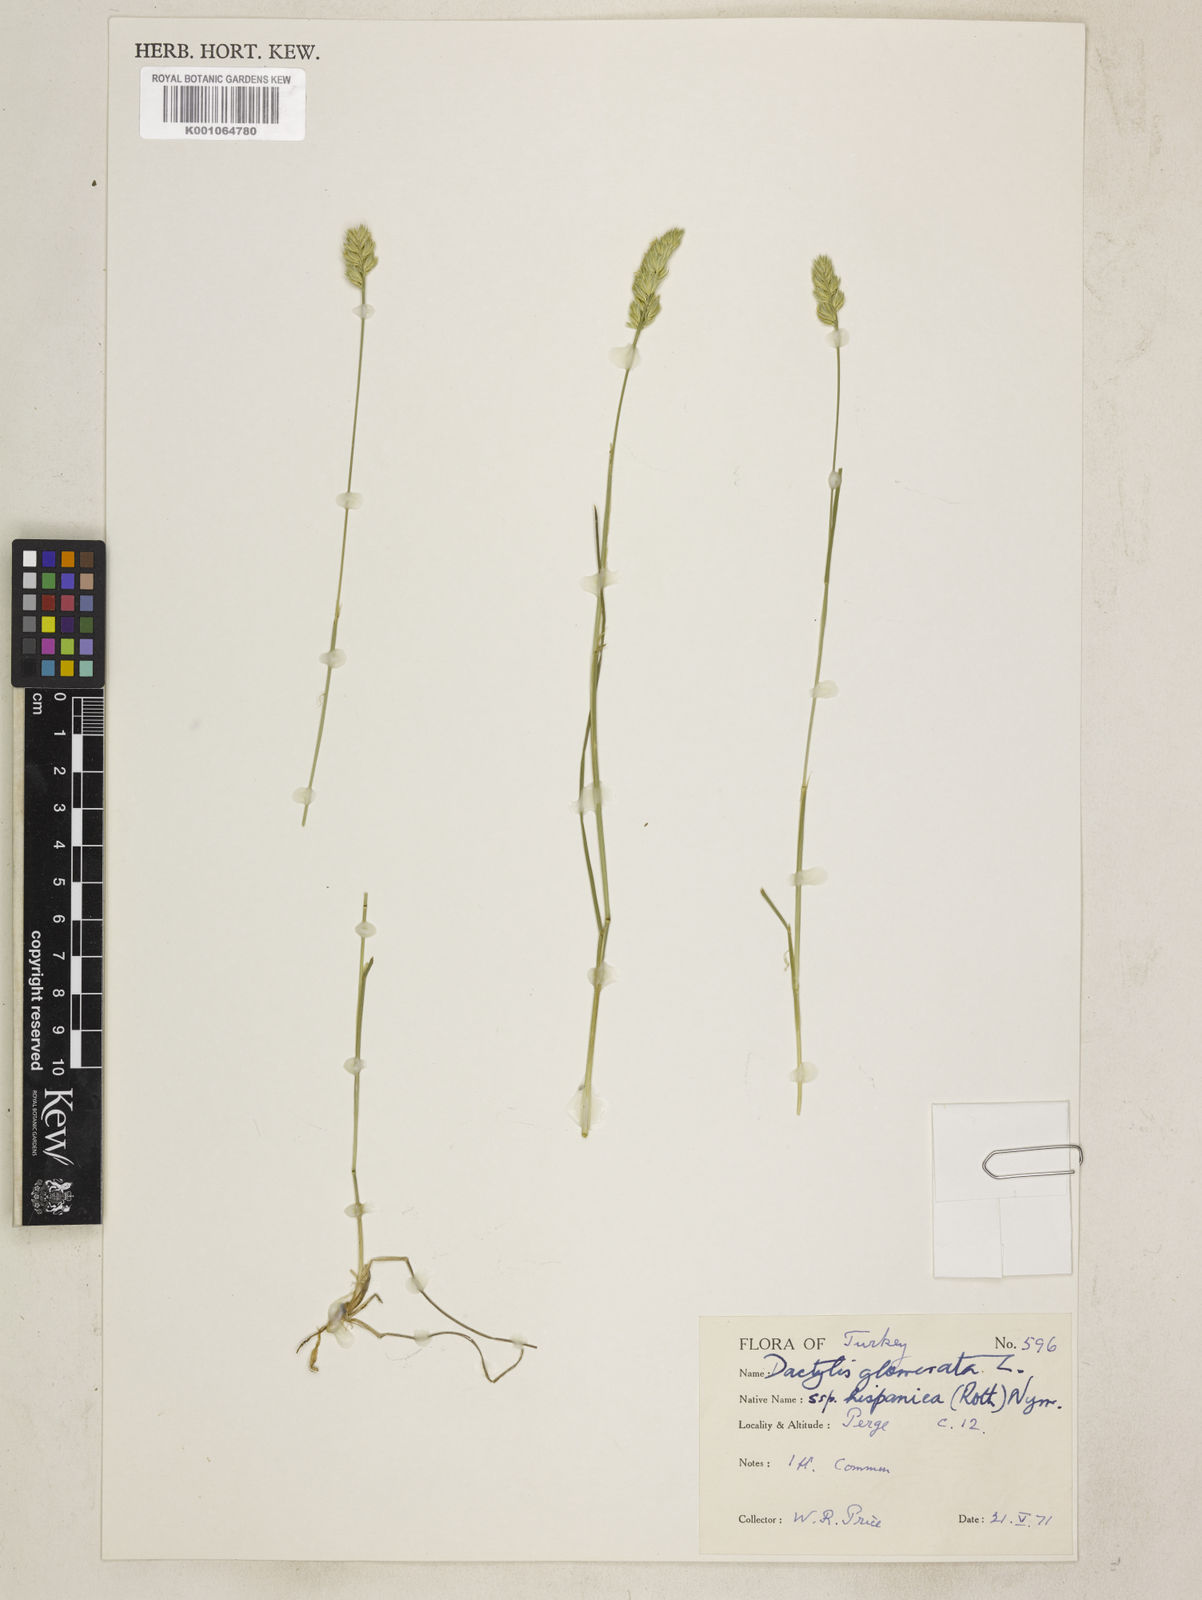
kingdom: Plantae
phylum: Tracheophyta
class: Liliopsida
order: Poales
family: Poaceae
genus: Dactylis
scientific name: Dactylis glomerata
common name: Orchardgrass
